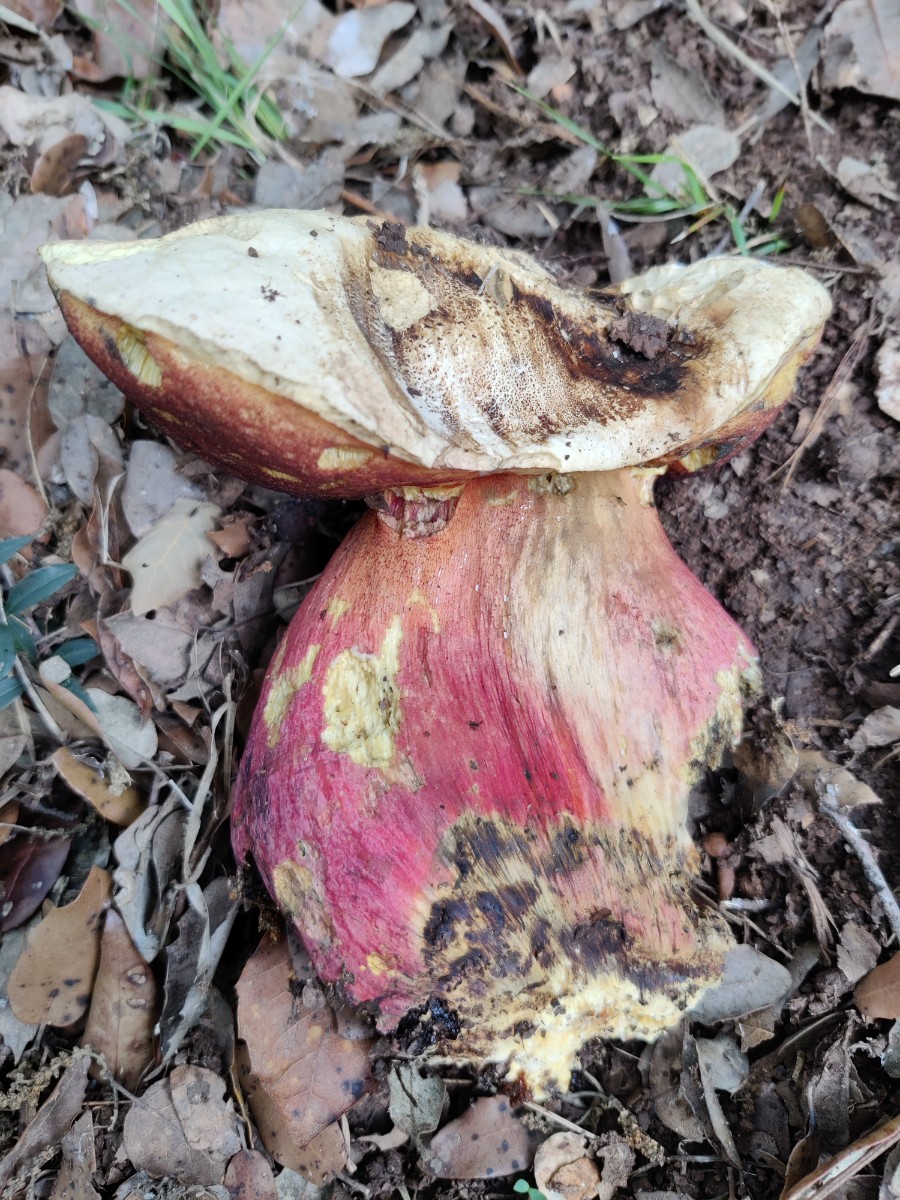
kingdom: Fungi
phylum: Basidiomycota
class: Agaricomycetes
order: Boletales
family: Boletaceae
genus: Rubroboletus
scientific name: Rubroboletus satanas
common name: Satans rørhat
